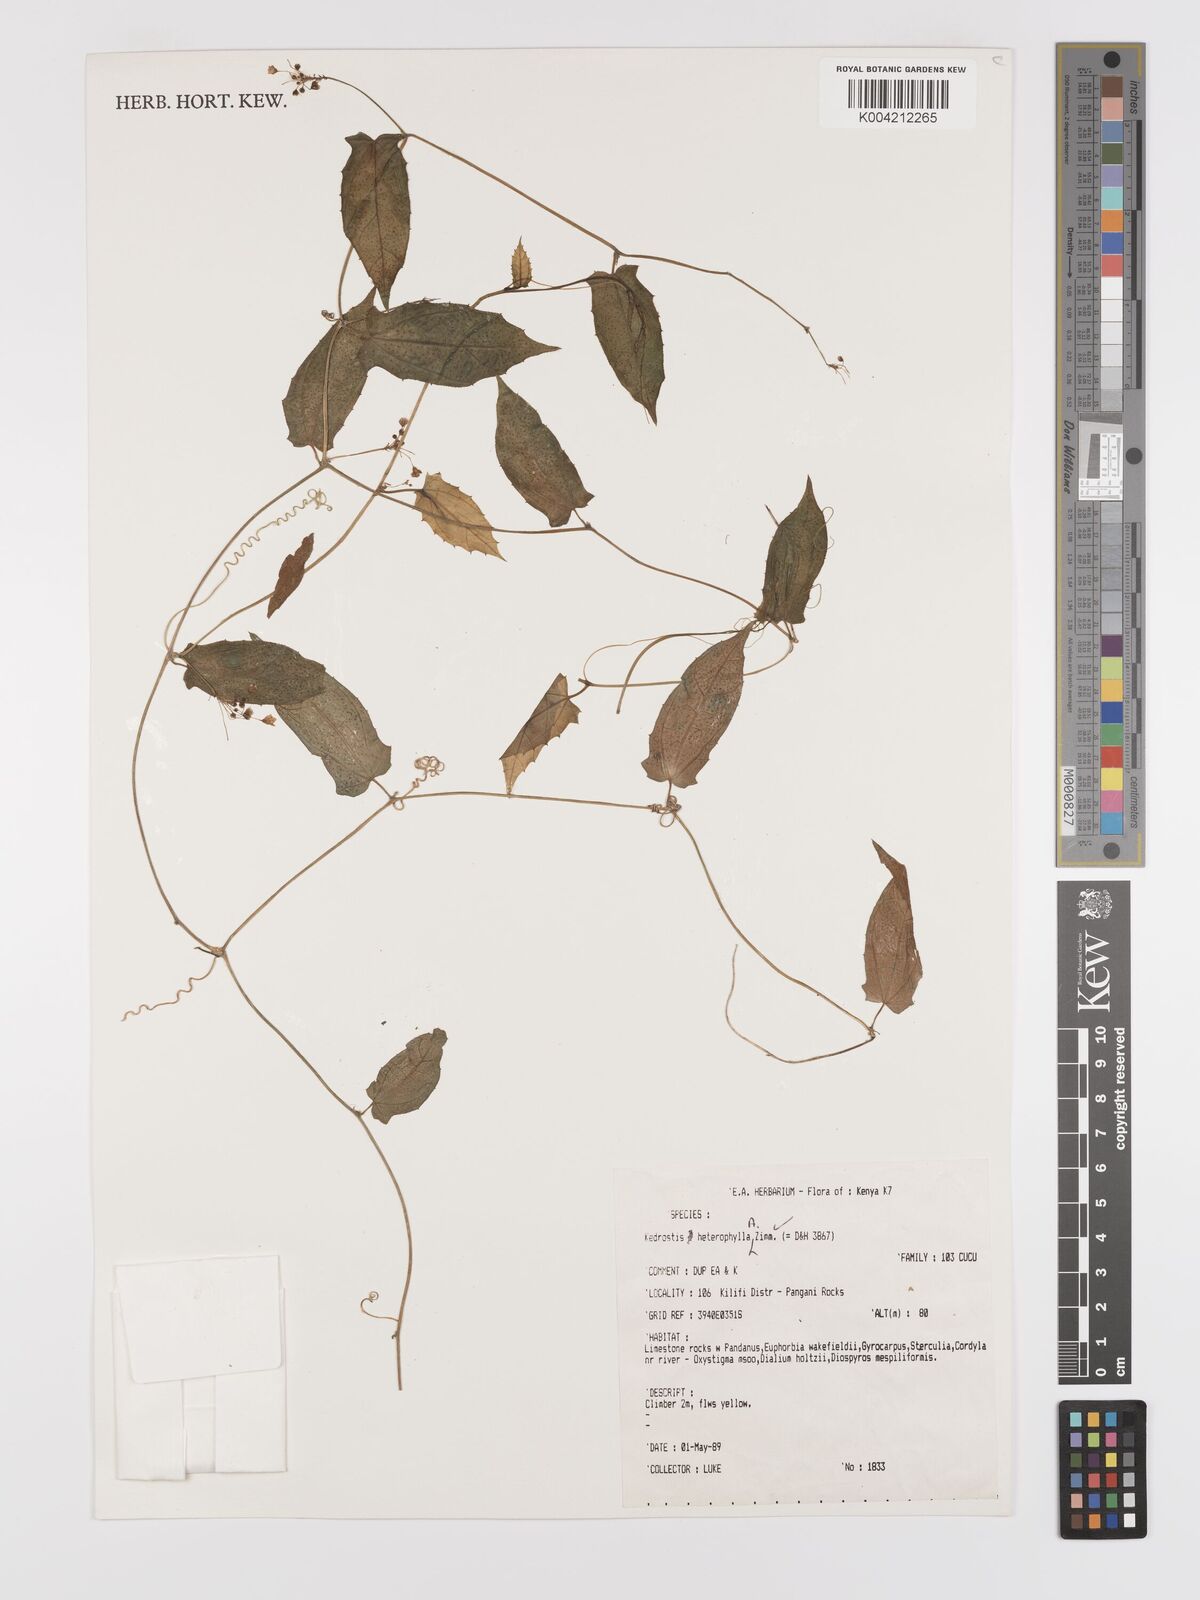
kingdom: Plantae
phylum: Tracheophyta
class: Magnoliopsida
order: Cucurbitales
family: Cucurbitaceae
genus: Kedrostis
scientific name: Kedrostis heterophylla
